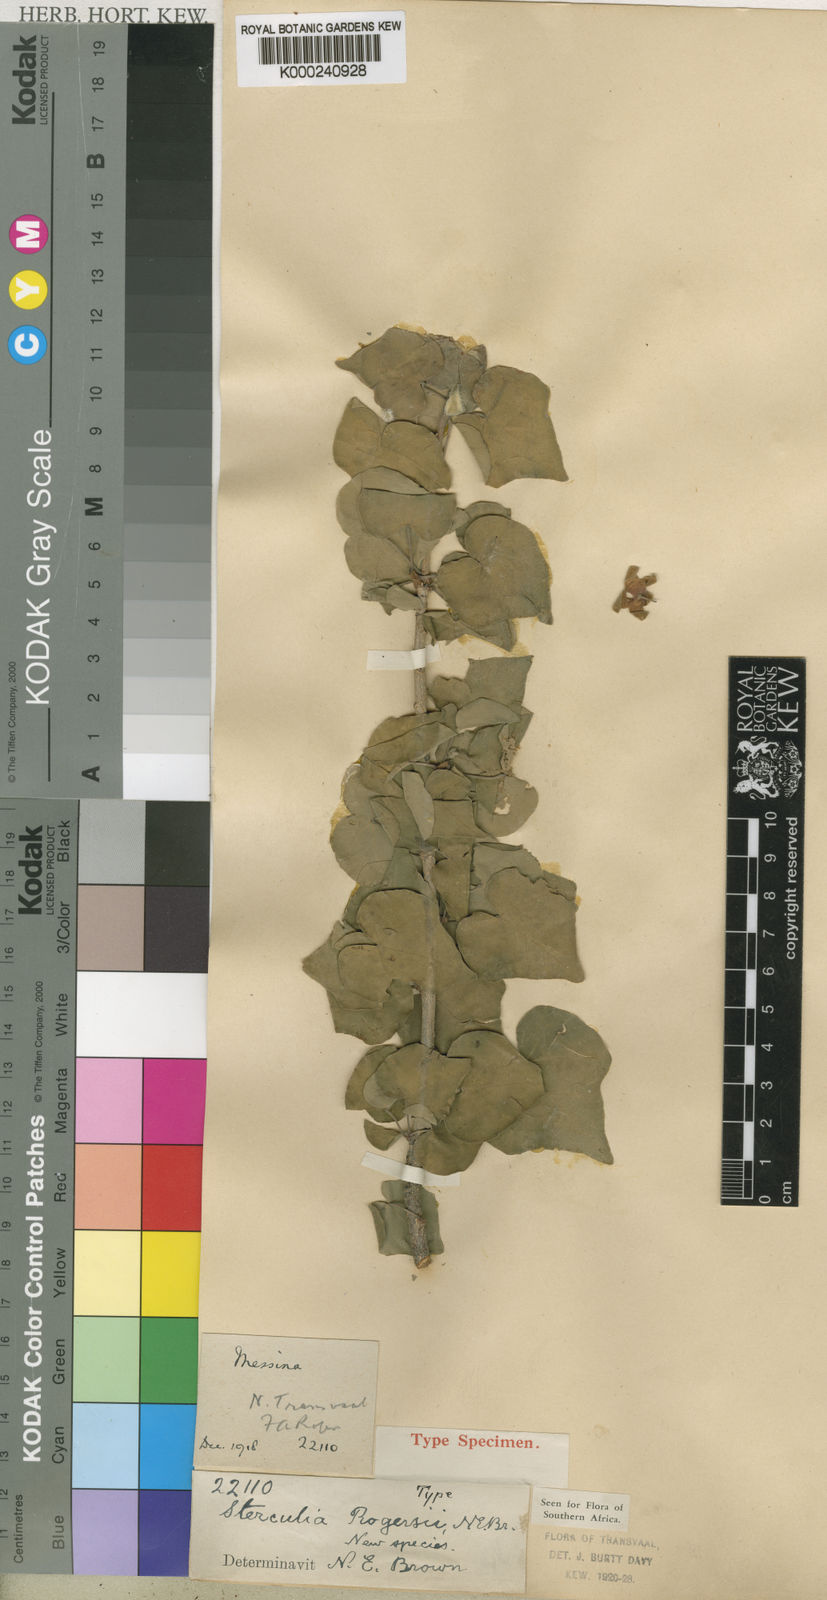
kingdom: Plantae
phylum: Tracheophyta
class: Magnoliopsida
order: Malvales
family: Malvaceae
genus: Sterculia
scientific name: Sterculia rogersii
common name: Star-chestnut
